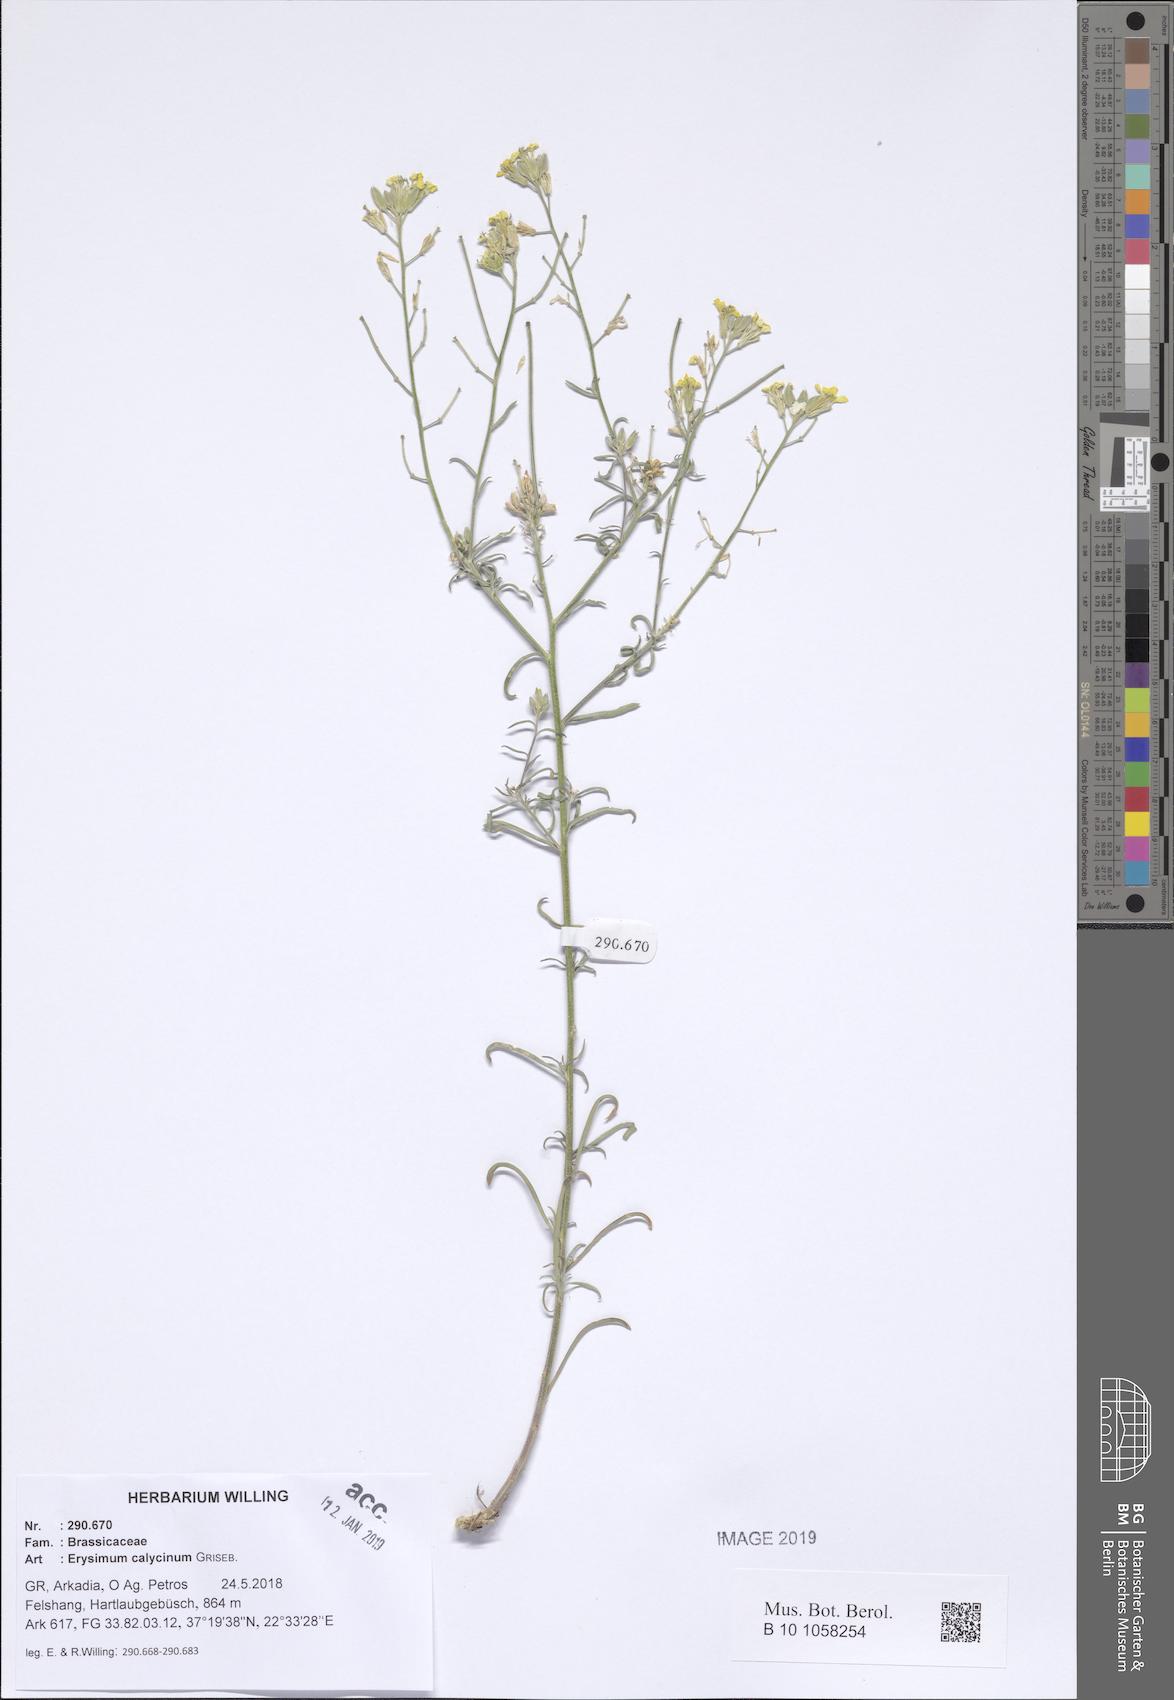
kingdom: Plantae
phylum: Tracheophyta
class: Magnoliopsida
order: Brassicales
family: Brassicaceae
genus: Erysimum
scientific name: Erysimum calycinum
